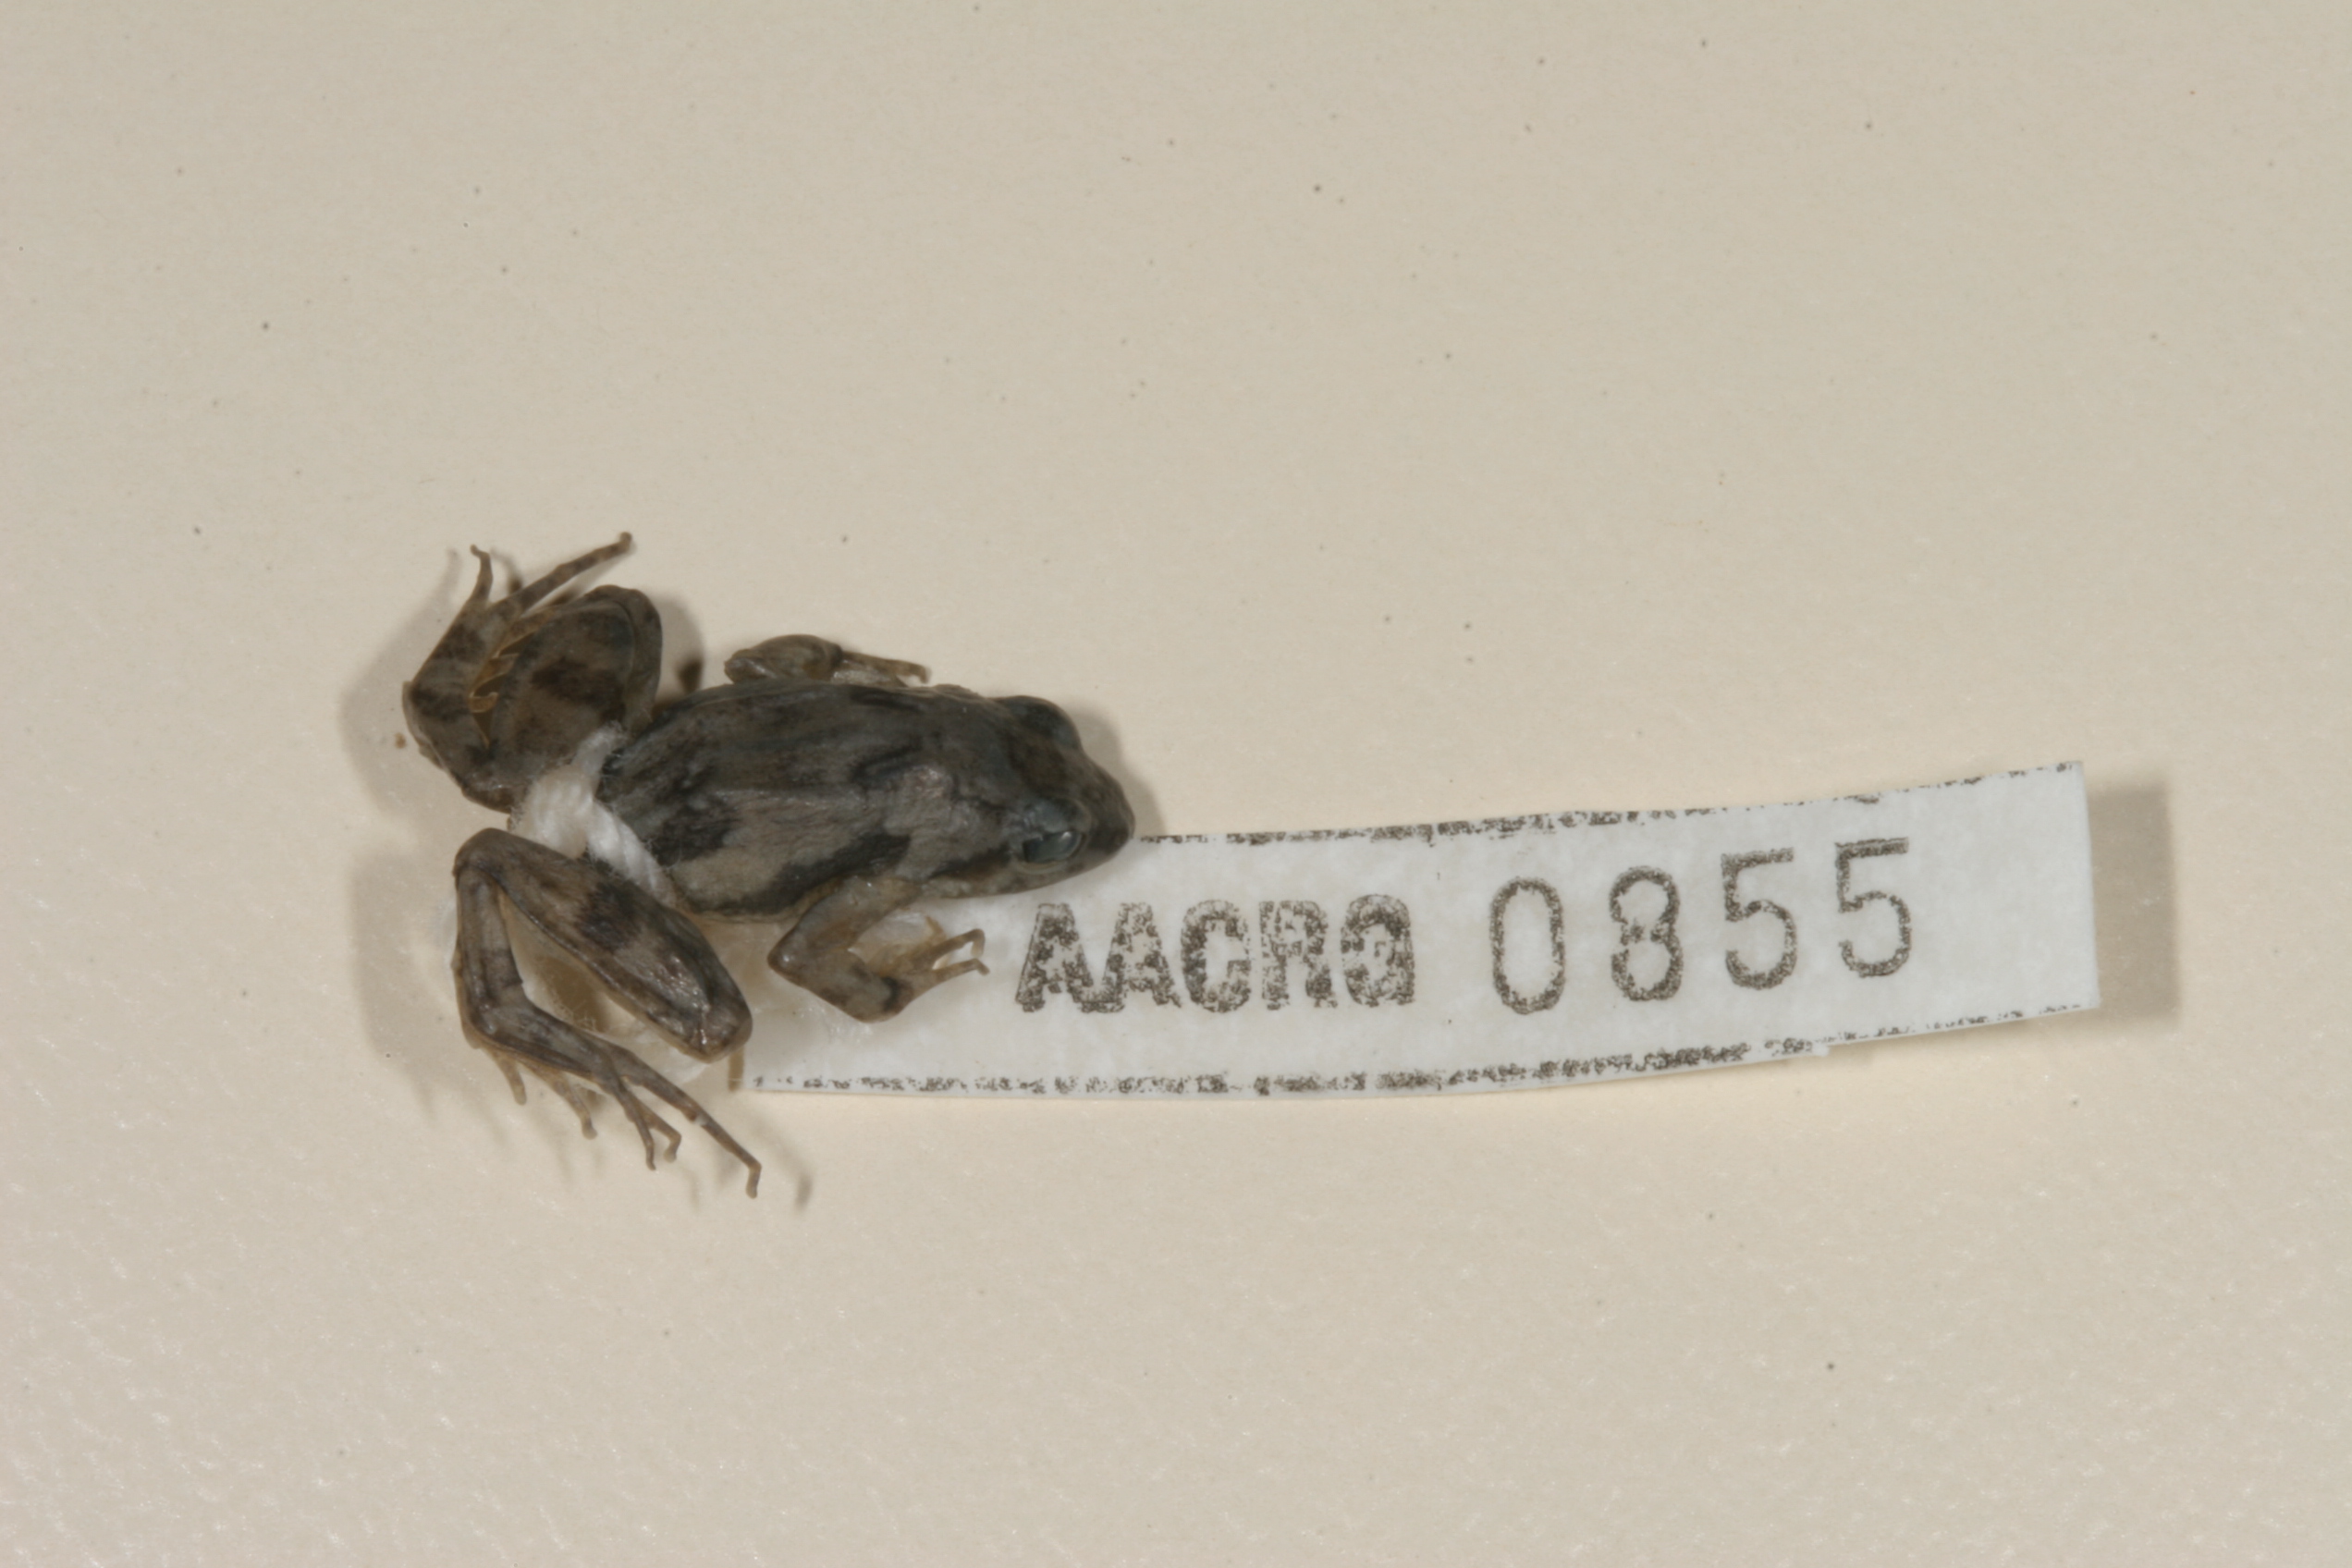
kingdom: Animalia
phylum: Chordata
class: Amphibia
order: Anura
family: Phrynobatrachidae
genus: Phrynobatrachus
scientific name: Phrynobatrachus mababiensis
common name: Dwarf puddle frog
